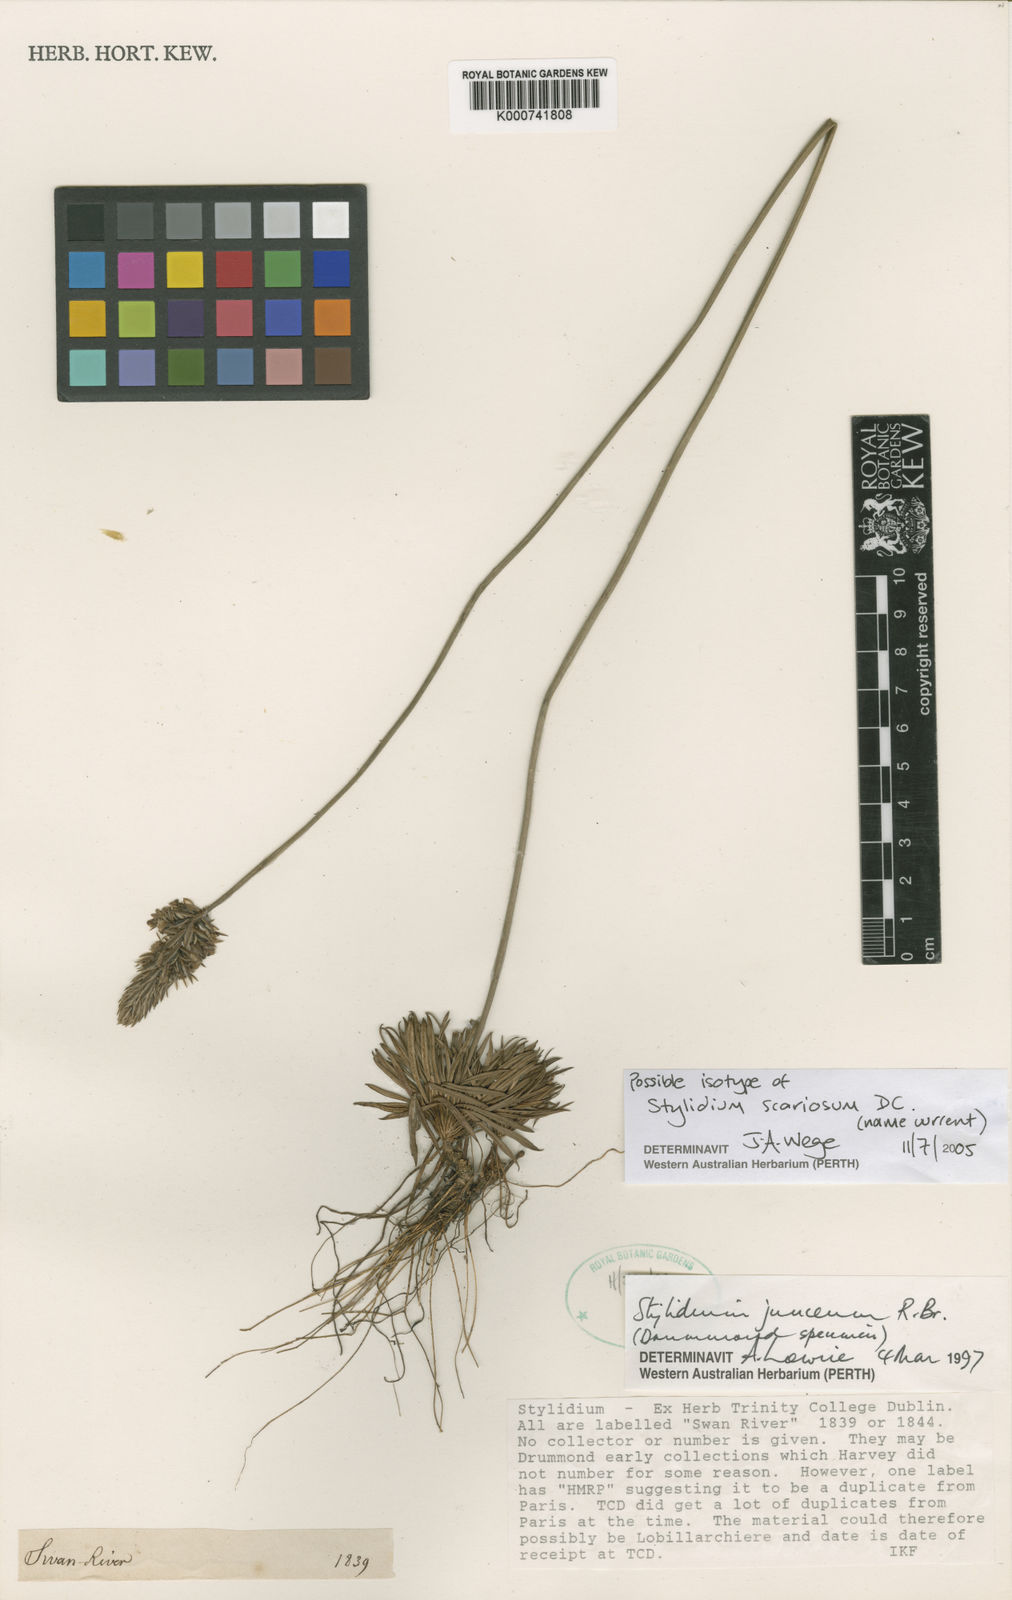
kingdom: Plantae
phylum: Tracheophyta
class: Magnoliopsida
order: Asterales
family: Stylidiaceae
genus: Stylidium
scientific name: Stylidium scariosum
